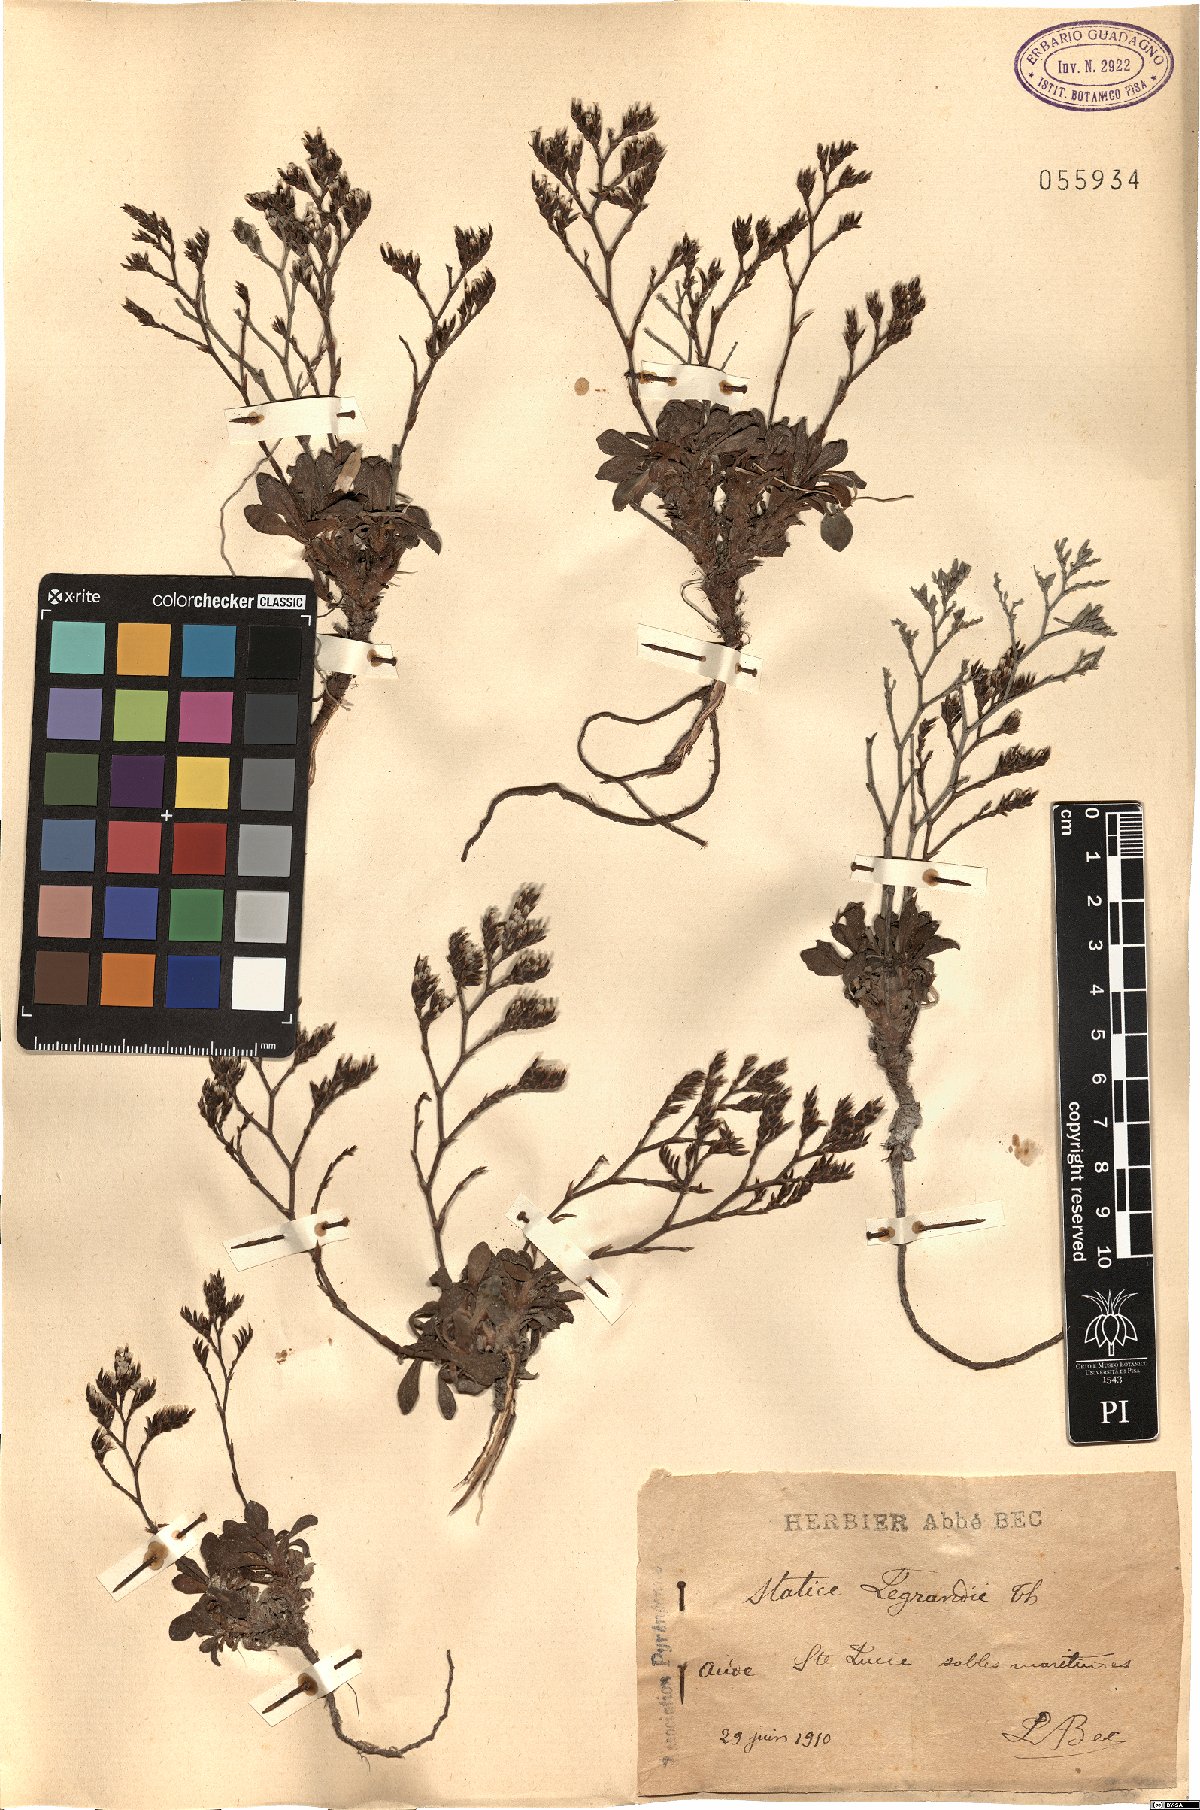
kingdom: Plantae
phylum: Tracheophyta
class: Magnoliopsida
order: Caryophyllales
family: Plumbaginaceae
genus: Limonium
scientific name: Limonium legrandii
